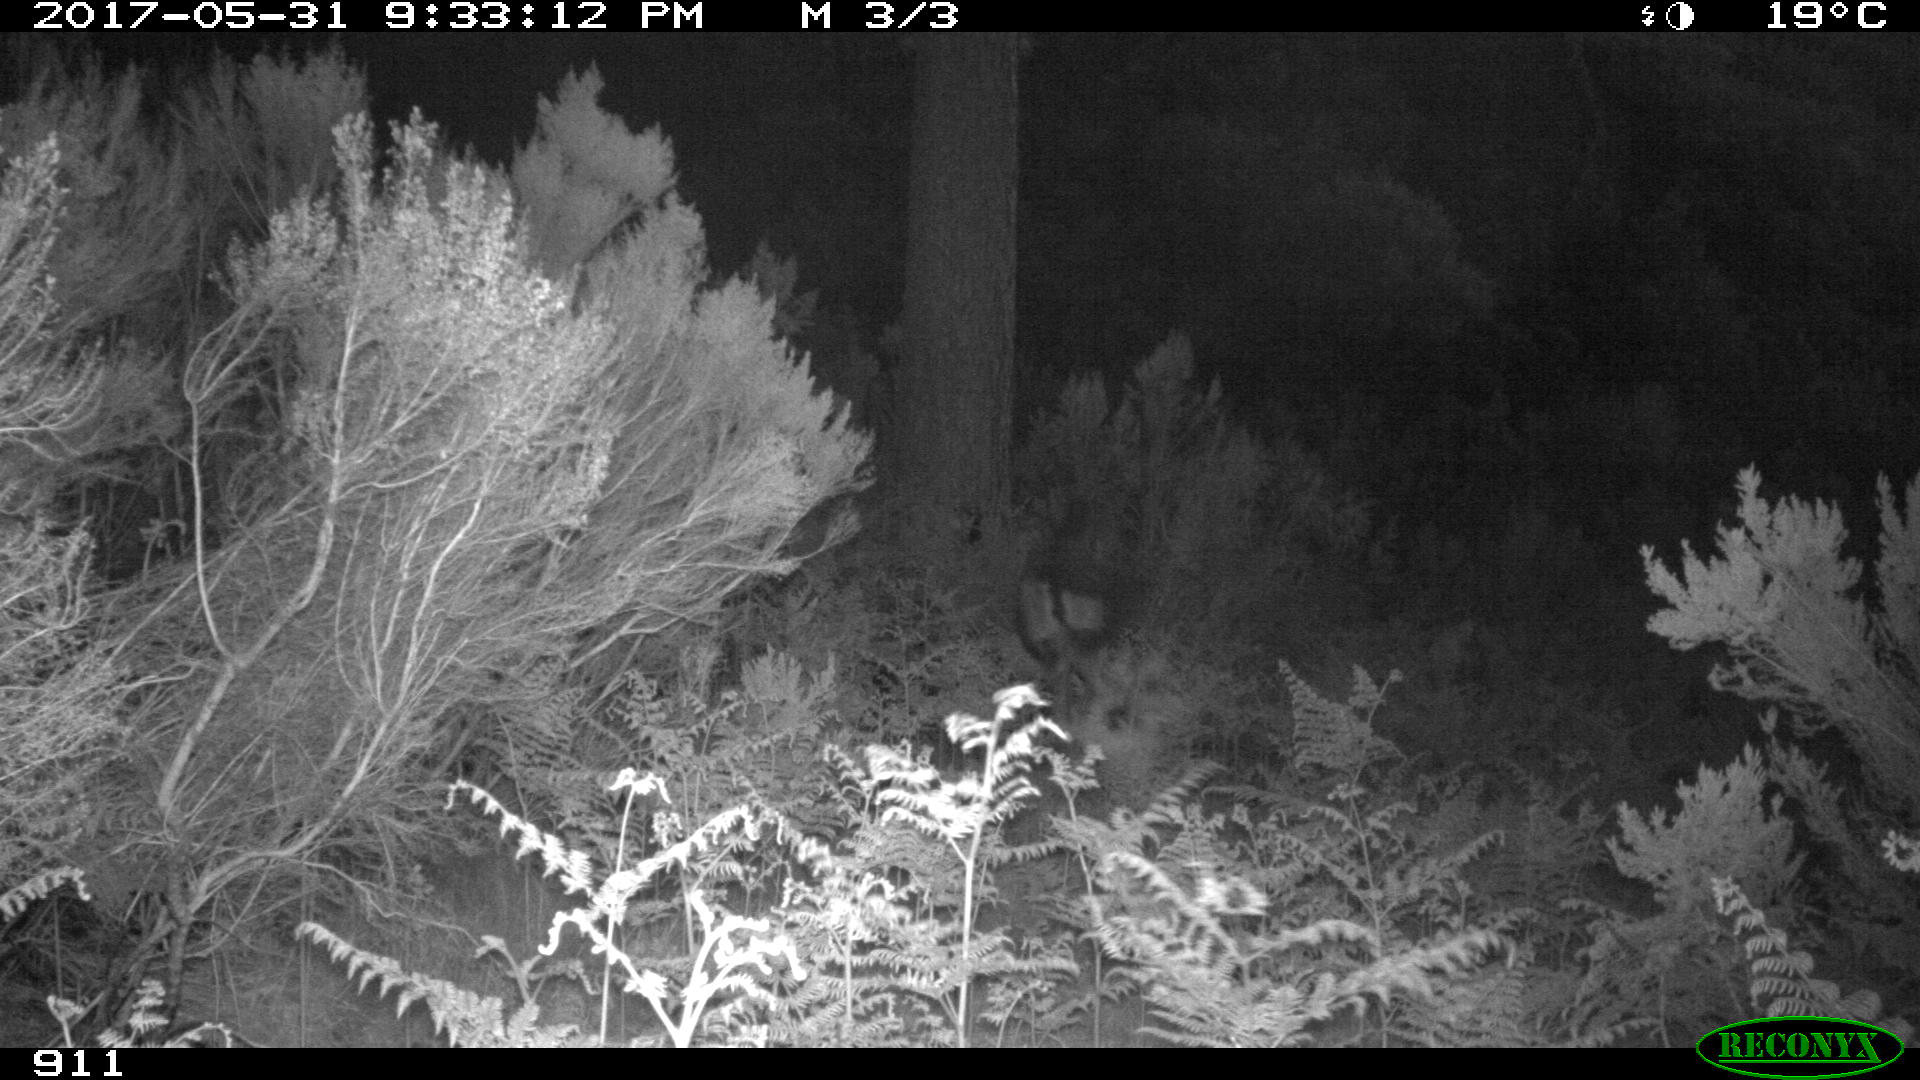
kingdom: Animalia
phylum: Chordata
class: Mammalia
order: Perissodactyla
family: Equidae
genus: Equus
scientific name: Equus caballus
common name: Horse
